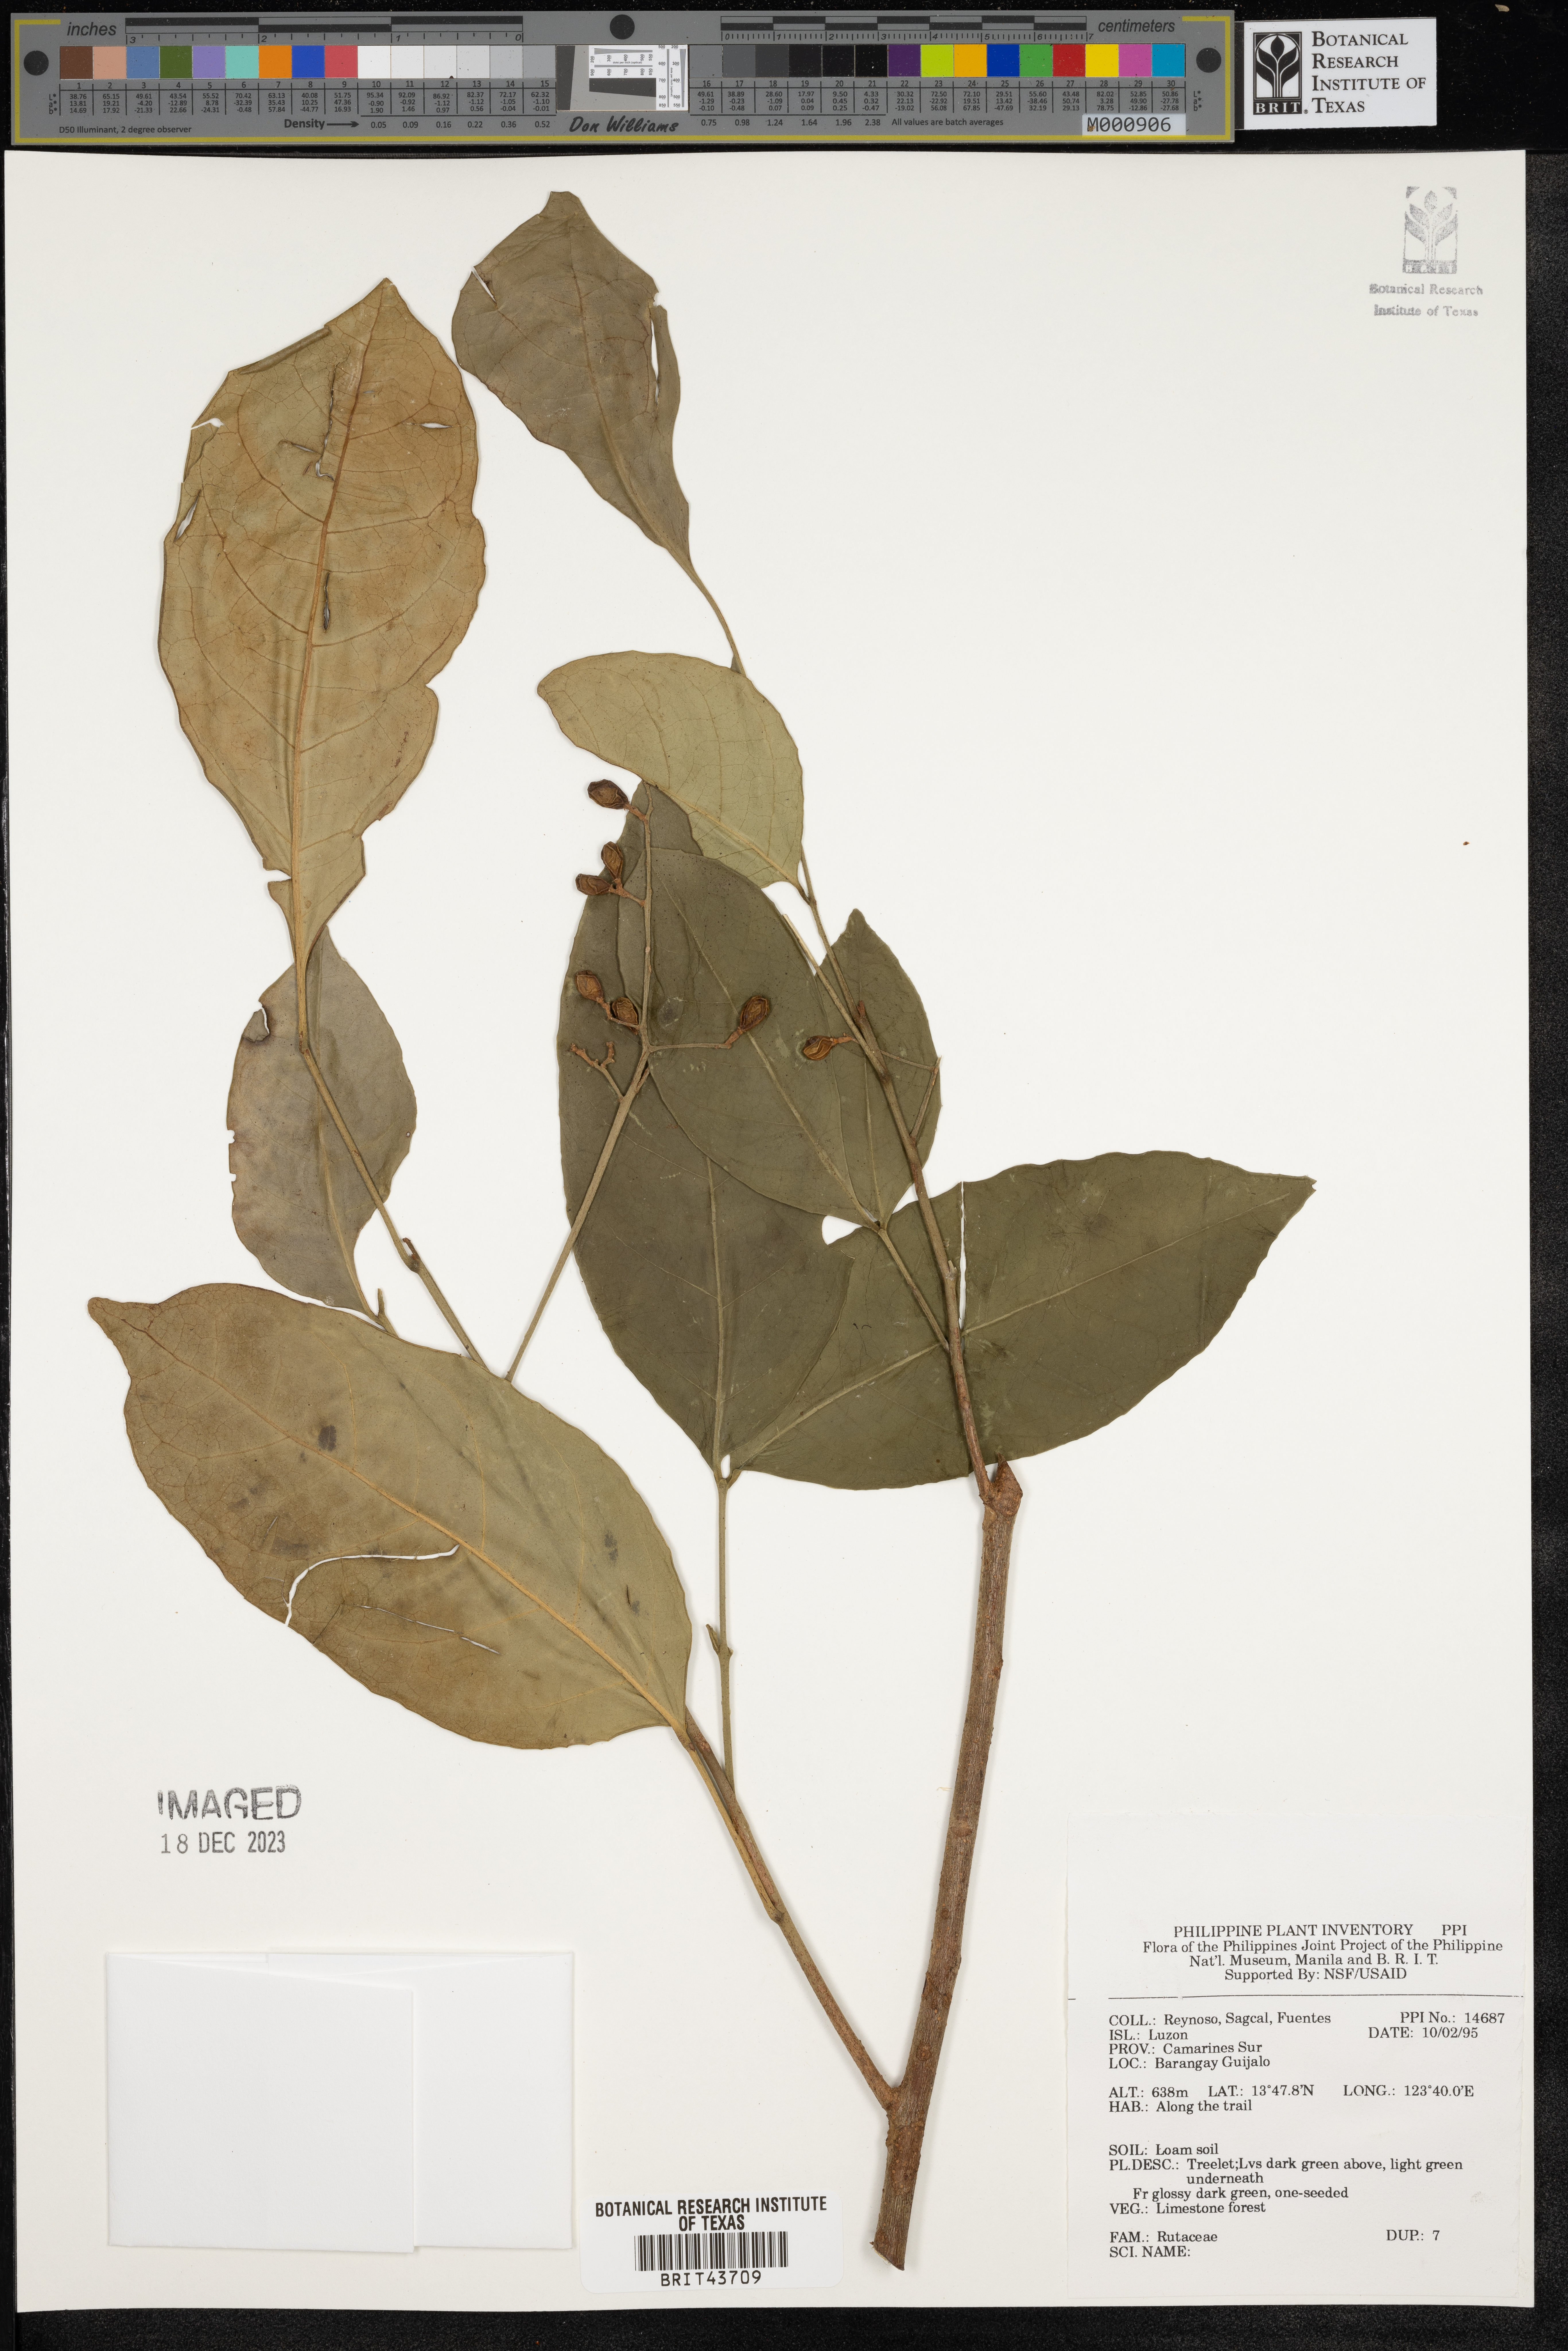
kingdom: Plantae
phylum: Tracheophyta
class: Magnoliopsida
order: Sapindales
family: Rutaceae
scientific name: Rutaceae
